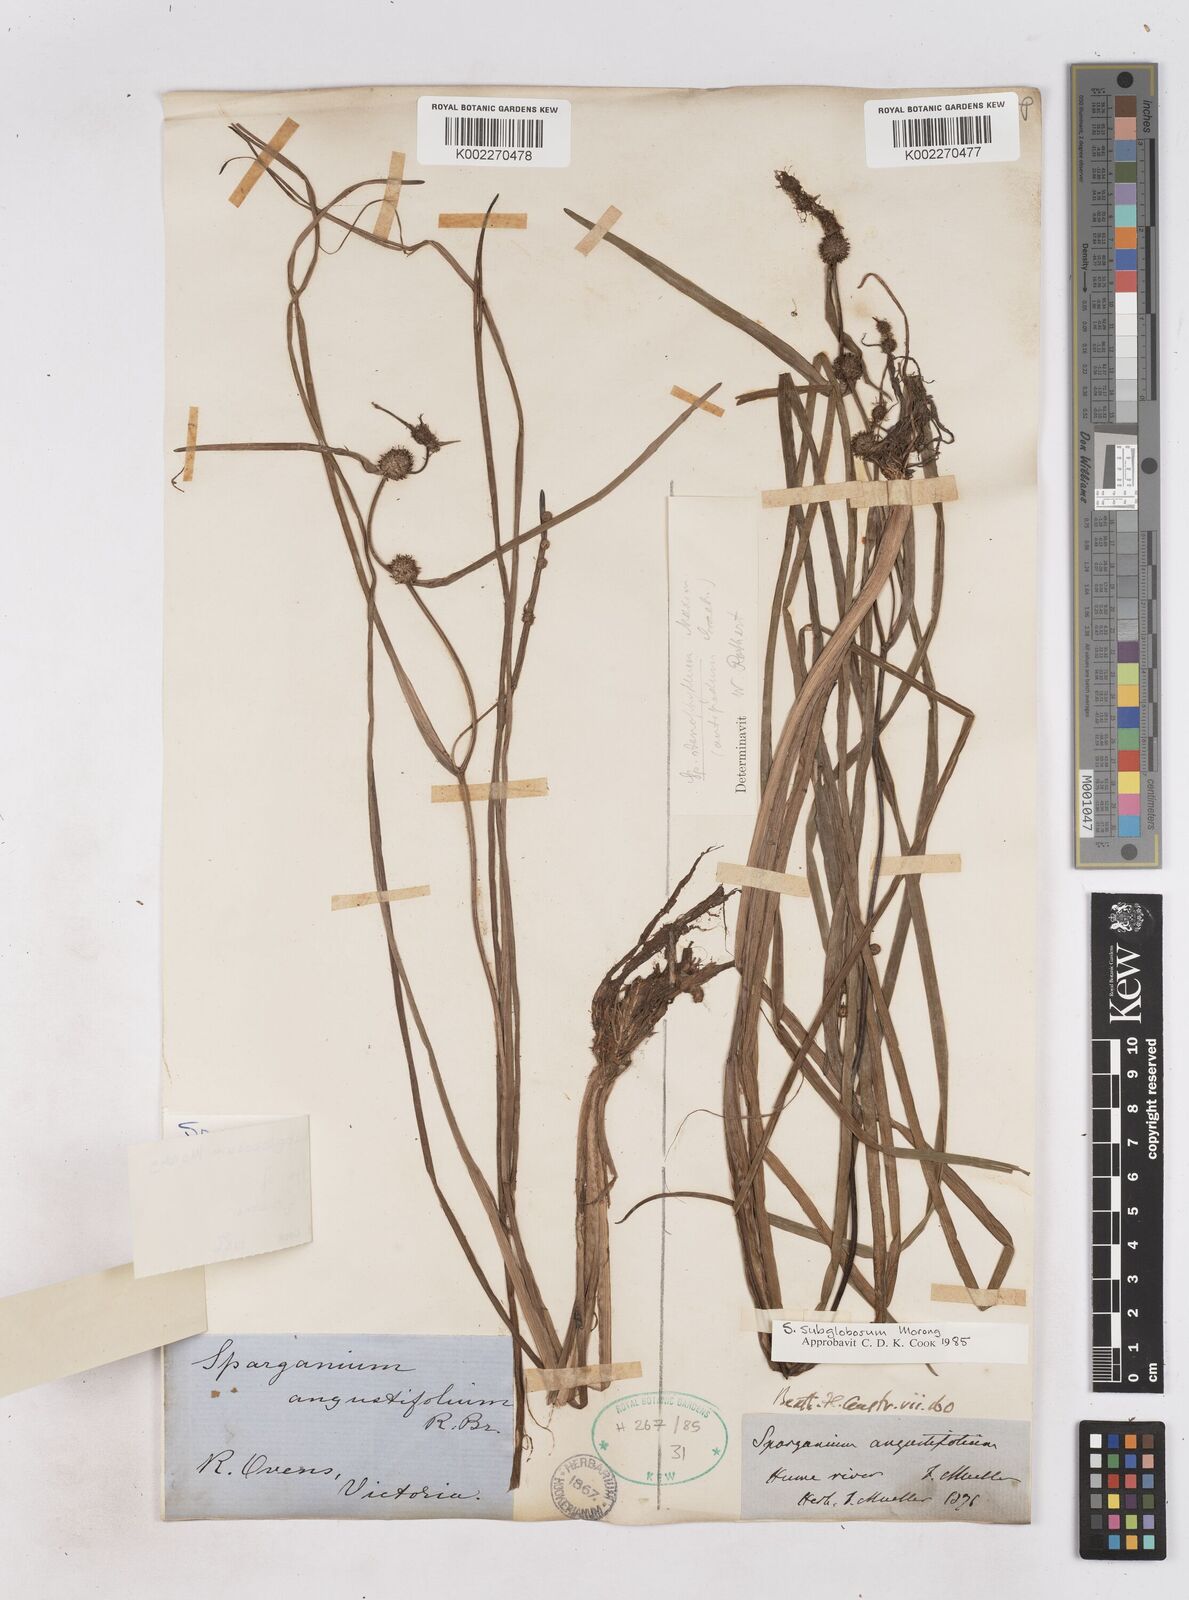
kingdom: Plantae
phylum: Tracheophyta
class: Liliopsida
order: Poales
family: Typhaceae
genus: Sparganium
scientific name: Sparganium subglobosum
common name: Burr­-reed
